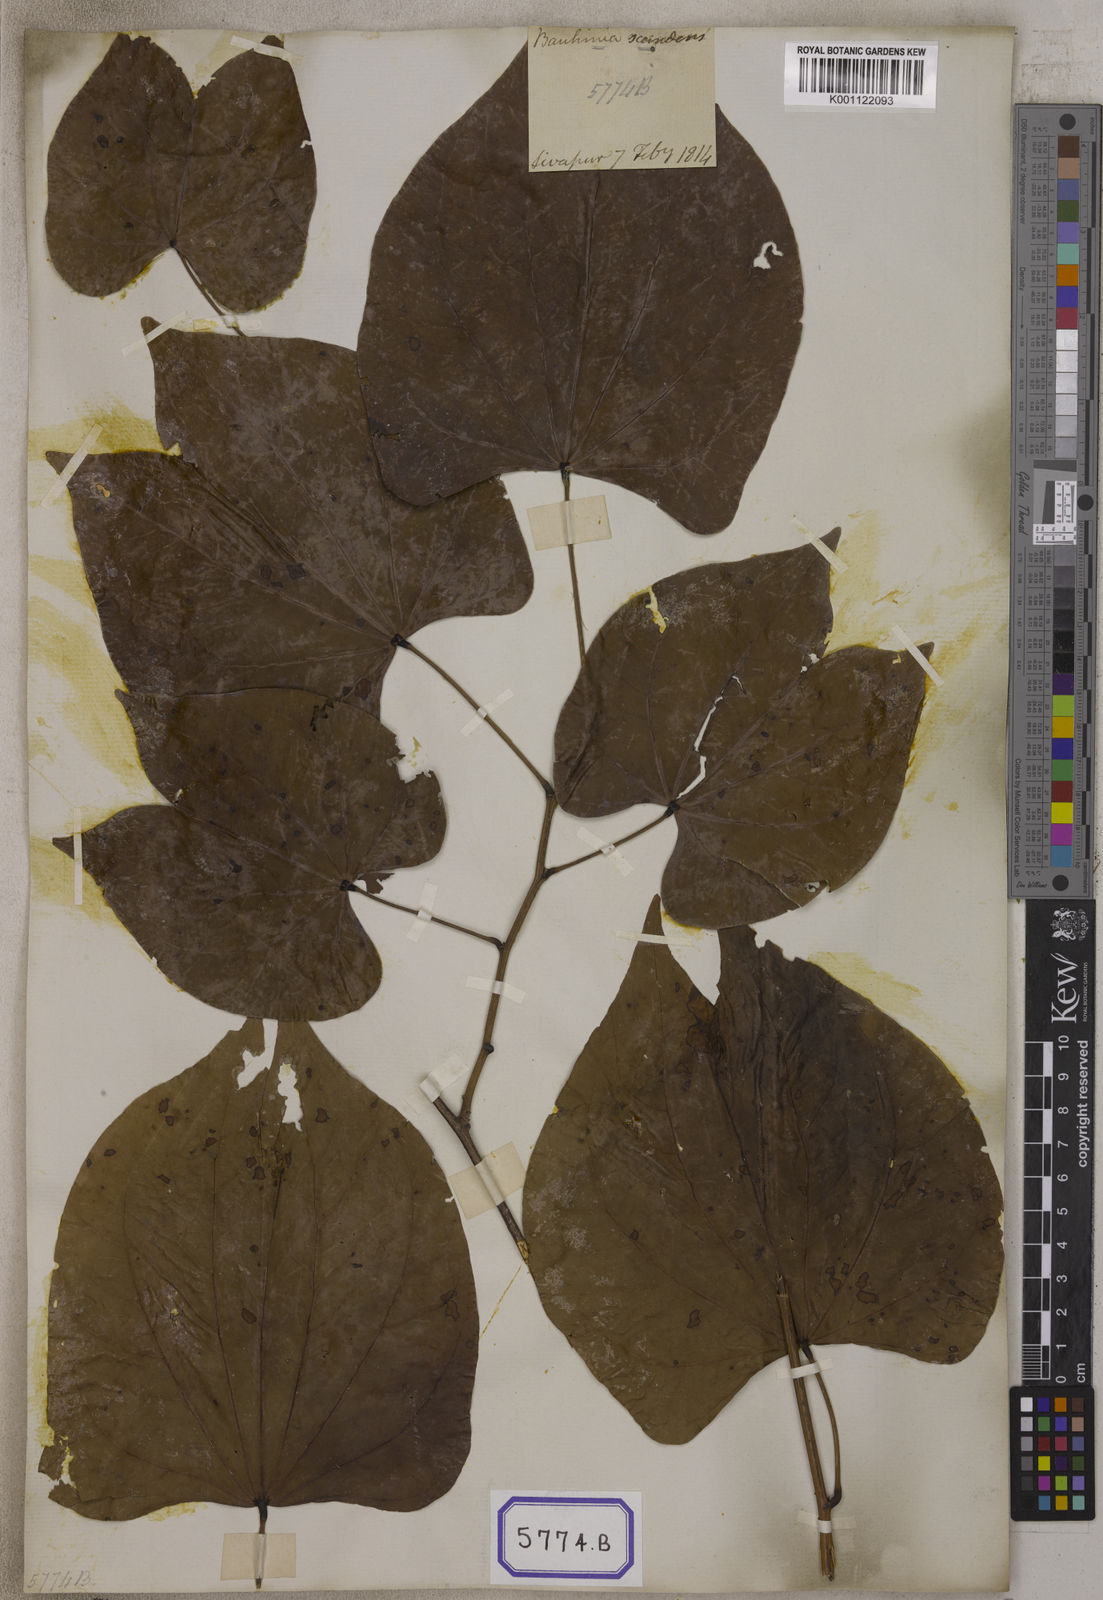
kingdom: Plantae
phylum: Tracheophyta
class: Magnoliopsida
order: Fabales
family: Fabaceae
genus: Bauhinia
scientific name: Bauhinia
